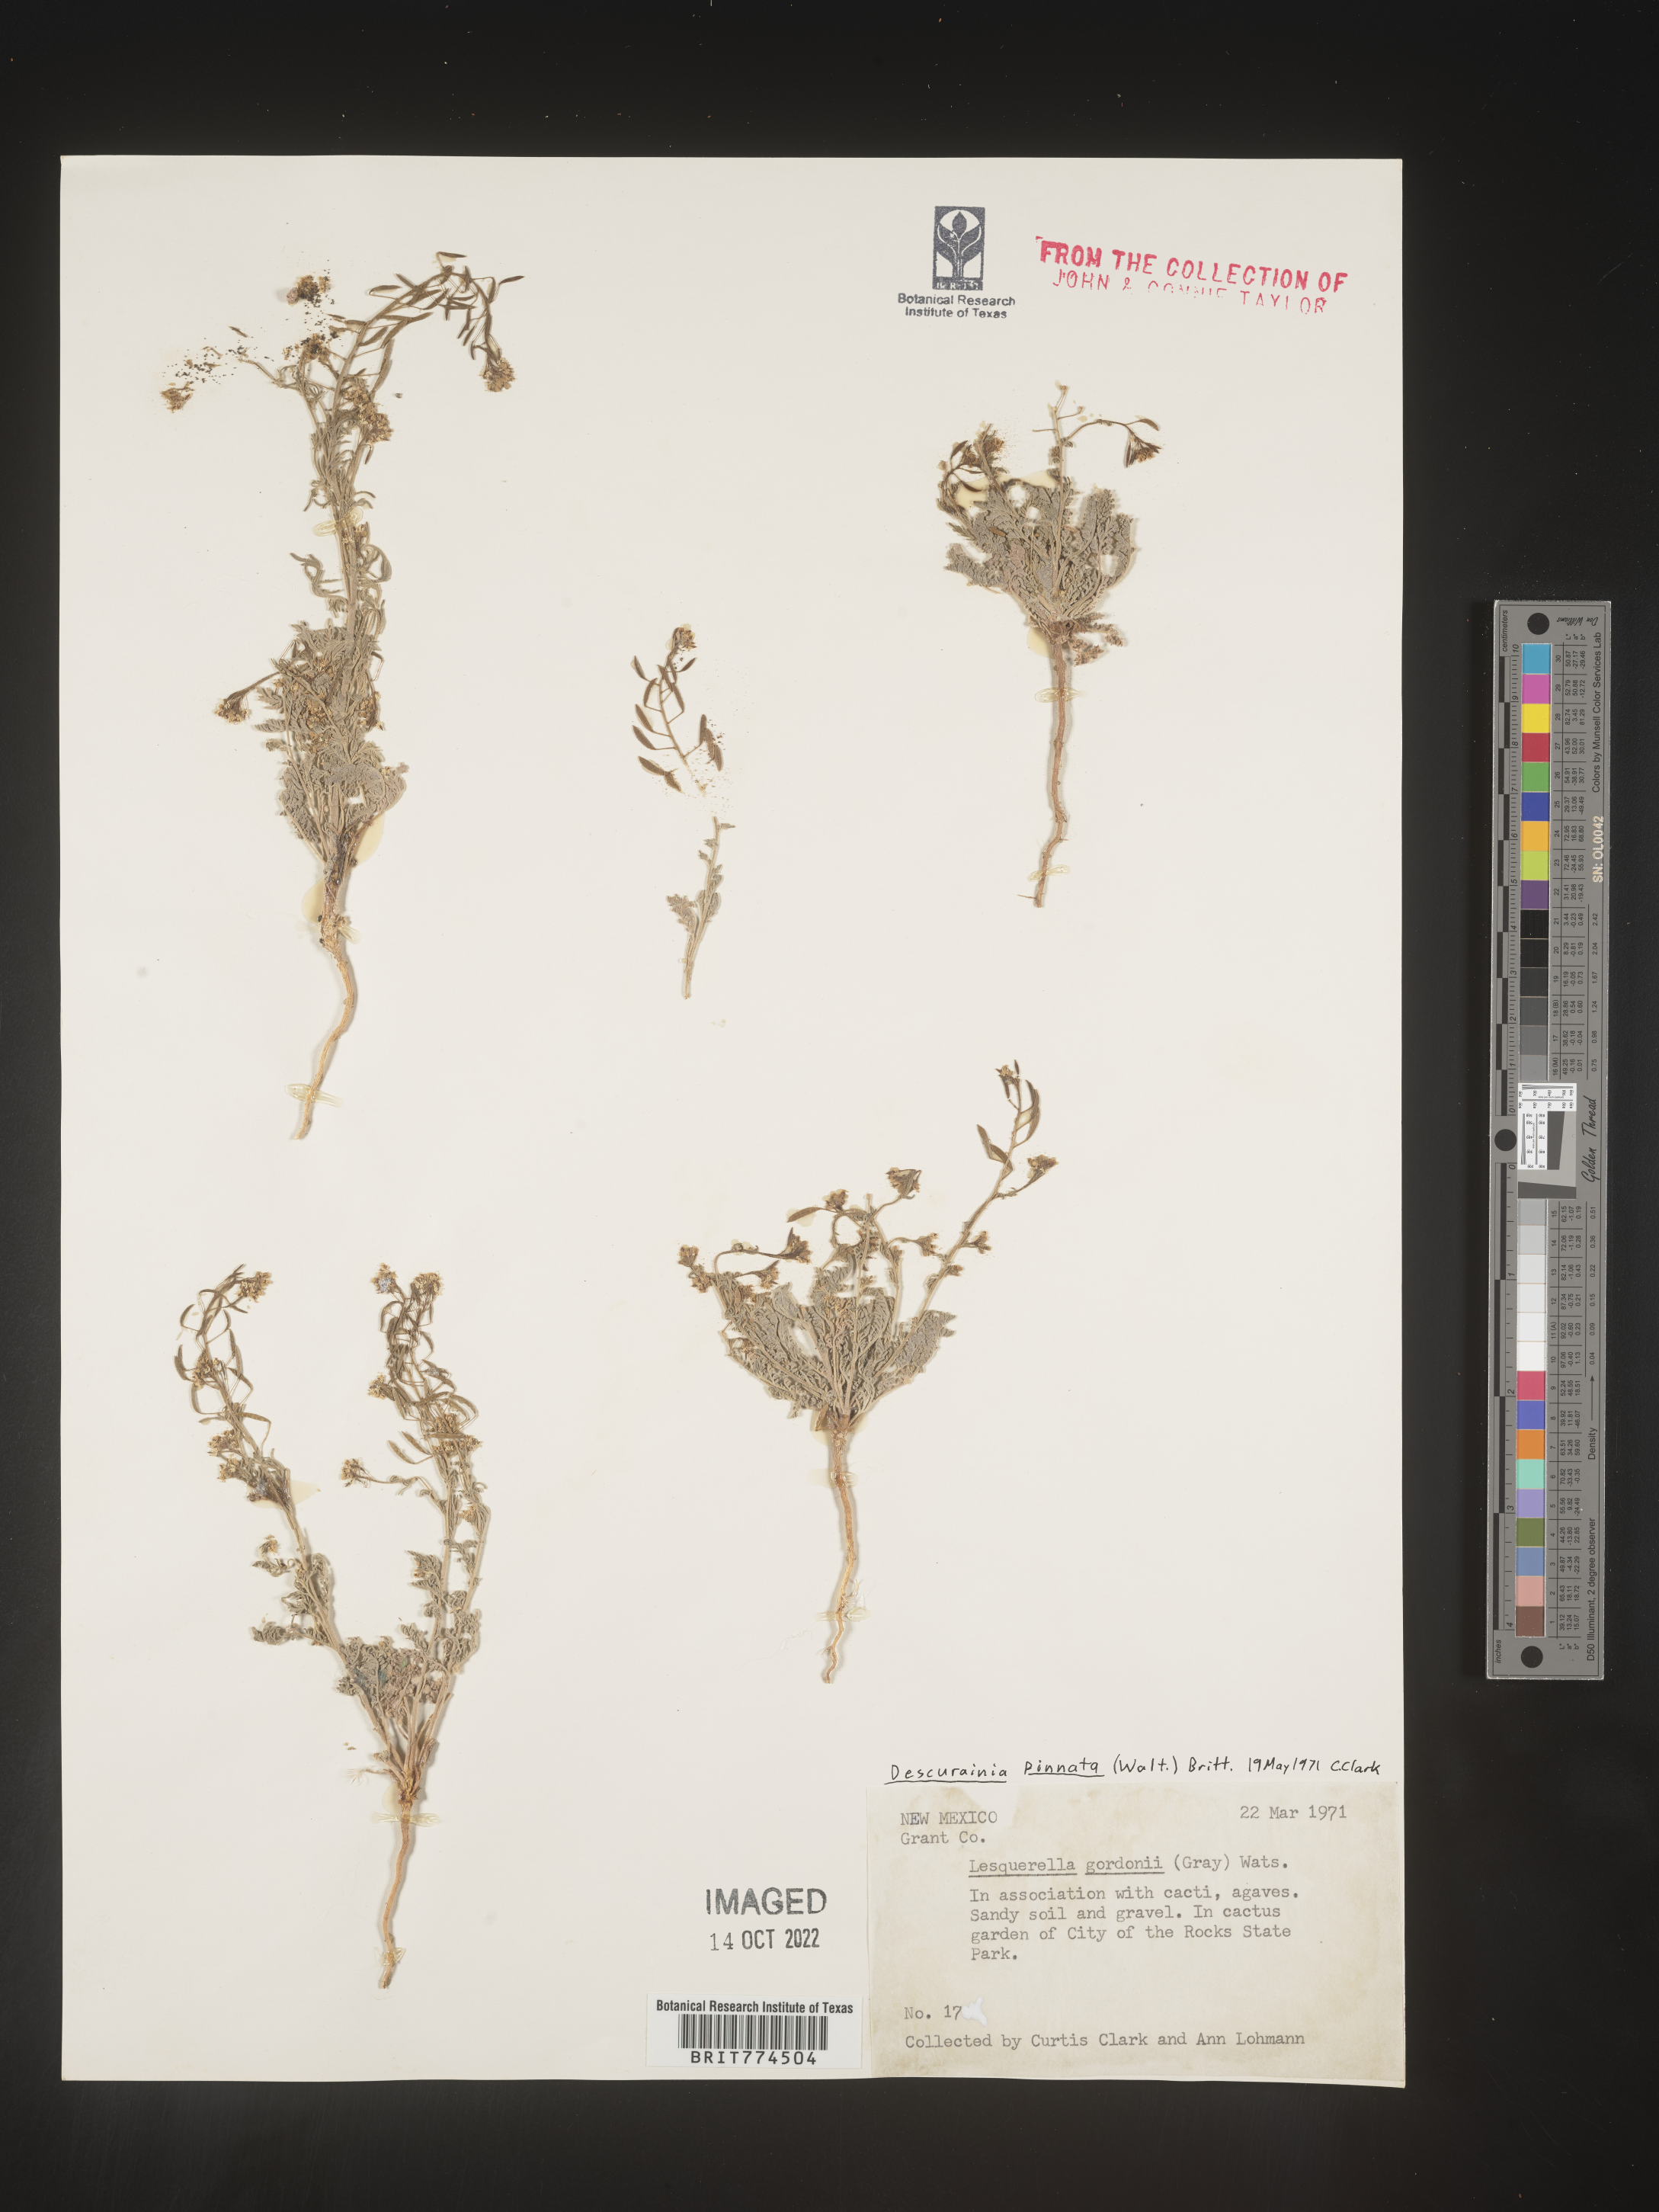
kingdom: Plantae
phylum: Tracheophyta
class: Magnoliopsida
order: Brassicales
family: Brassicaceae
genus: Descurainia
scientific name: Descurainia pinnata
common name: Western tansy mustard
